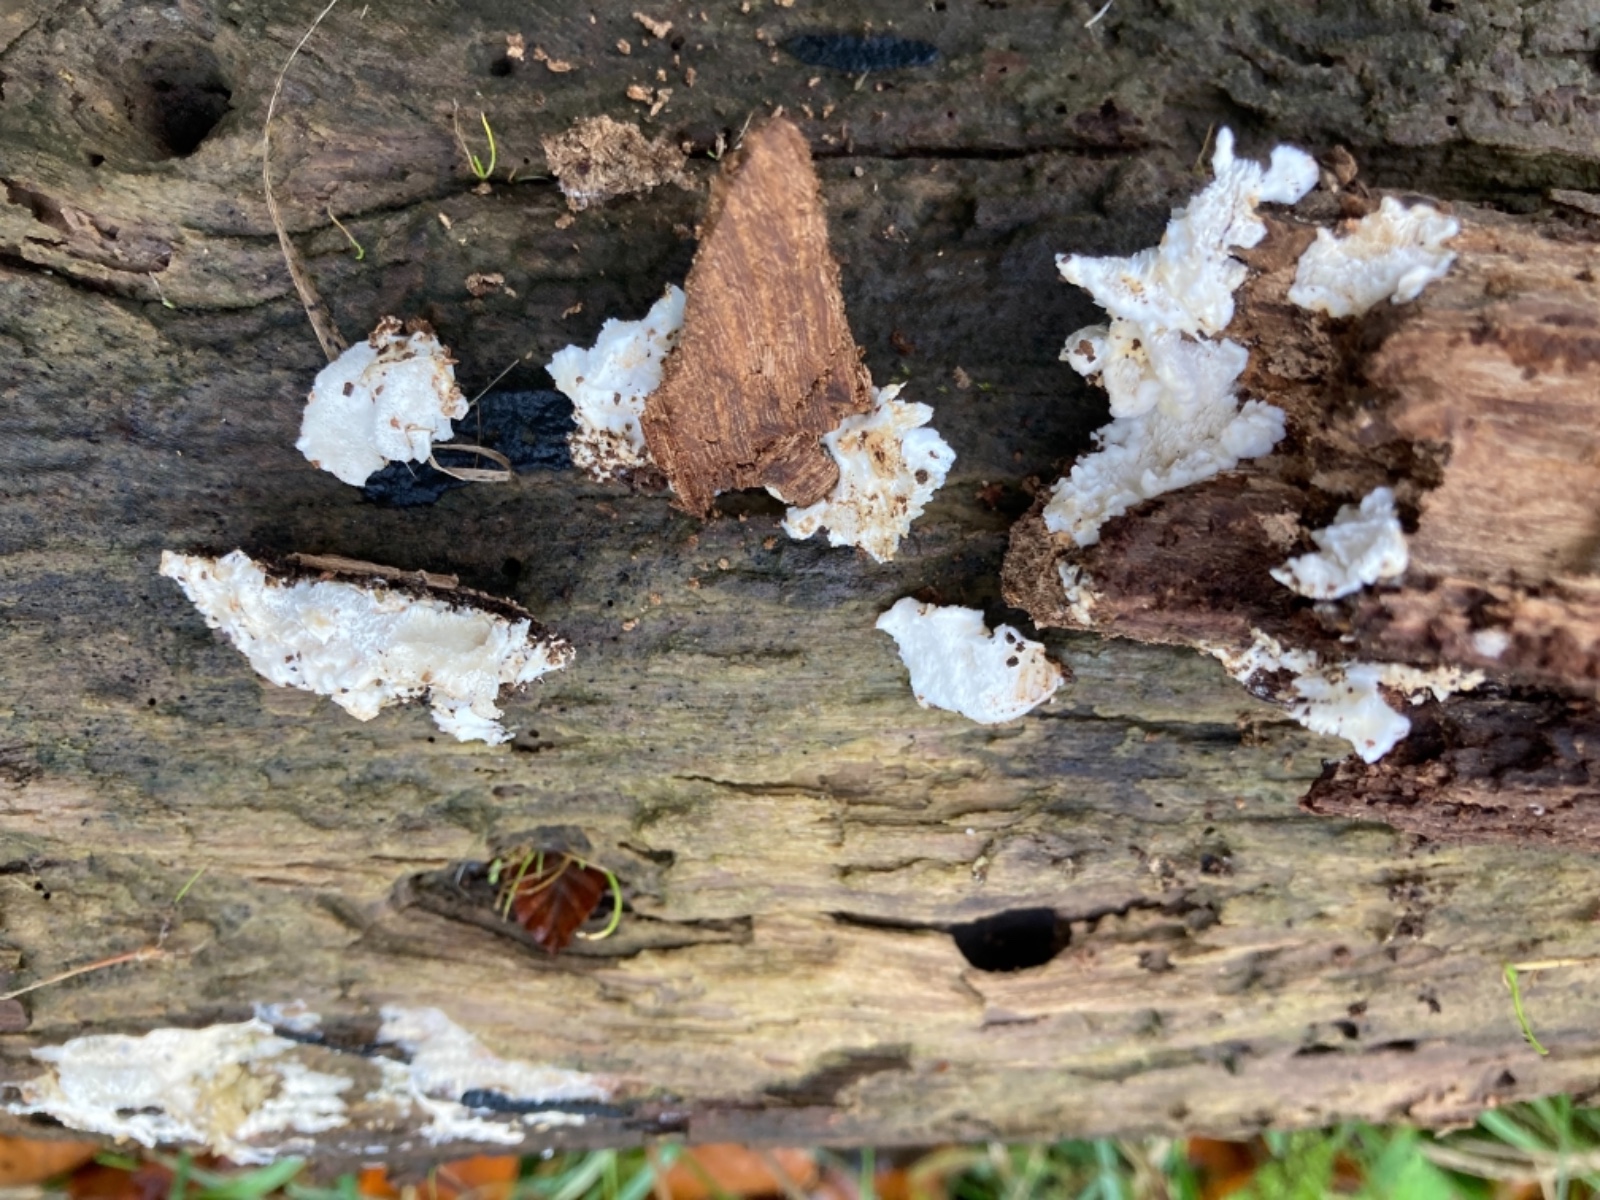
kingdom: Fungi
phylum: Basidiomycota
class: Agaricomycetes
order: Polyporales
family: Dacryobolaceae
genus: Oligoporus
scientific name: Oligoporus wakefieldiae
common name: række-kødporesvamp
